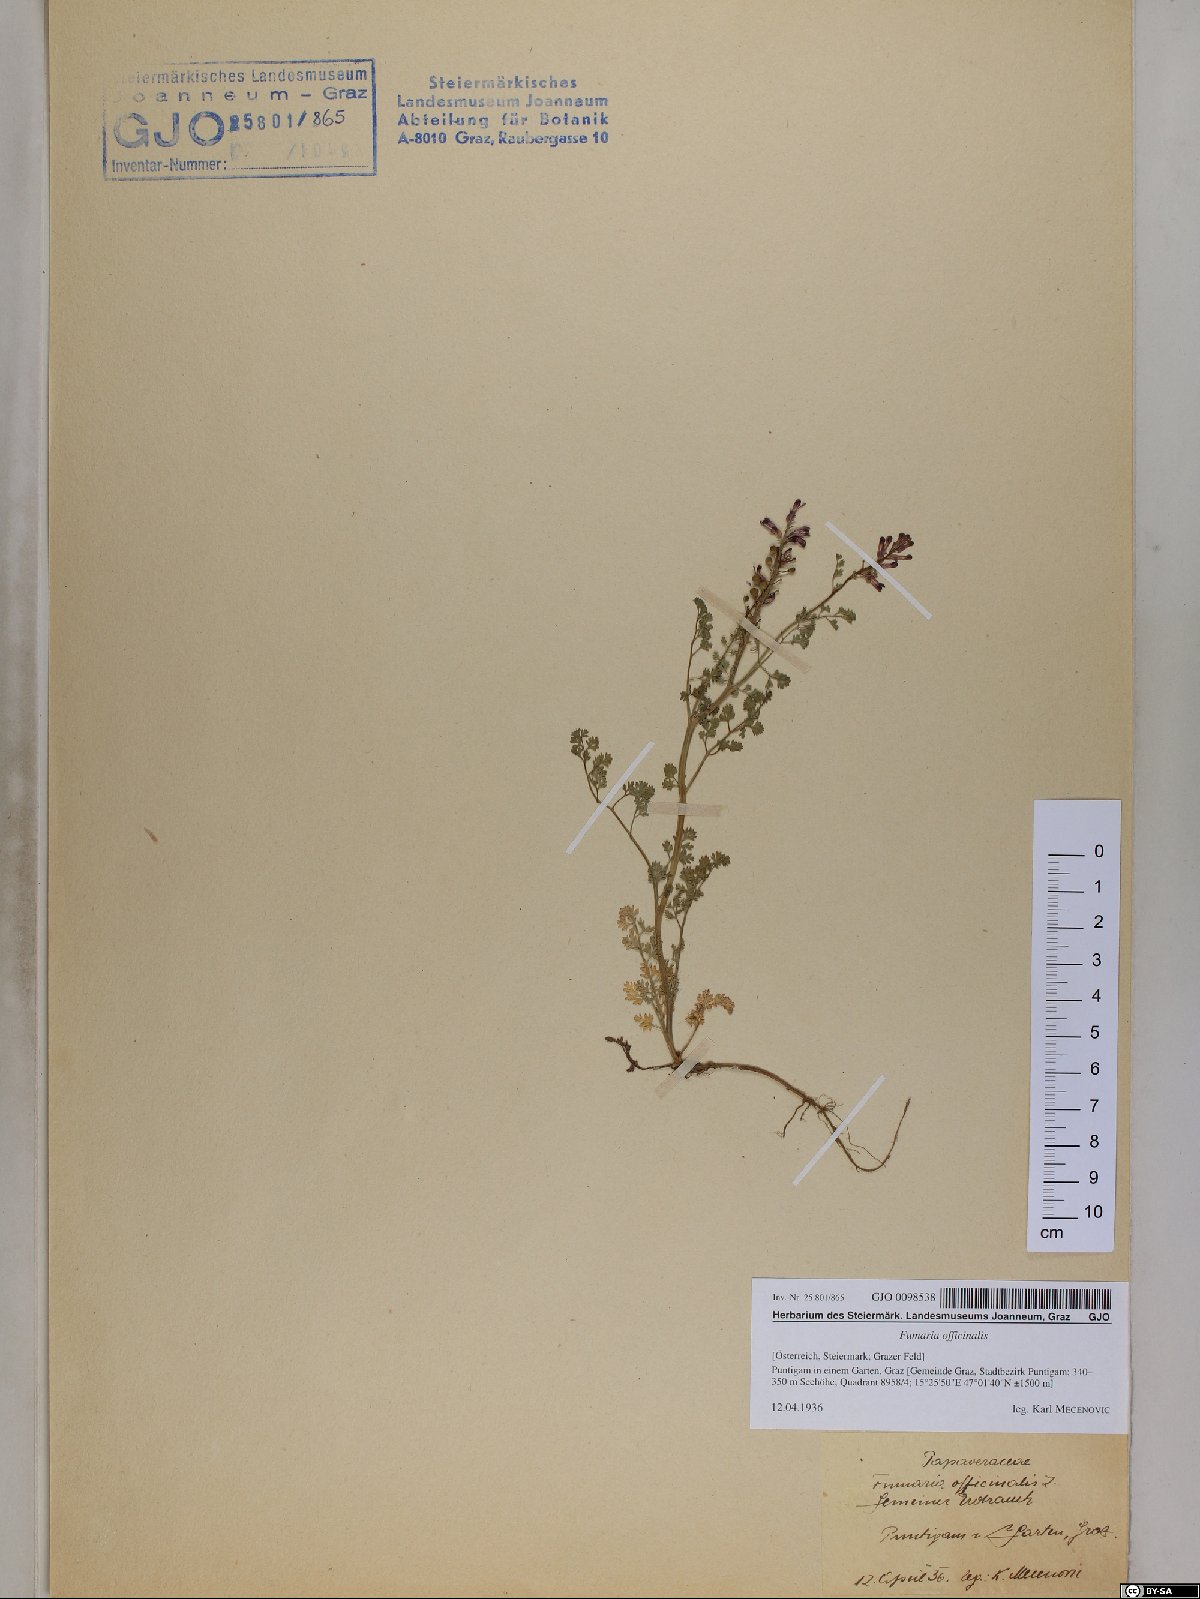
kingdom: Plantae
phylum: Tracheophyta
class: Magnoliopsida
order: Ranunculales
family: Papaveraceae
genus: Fumaria
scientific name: Fumaria officinalis
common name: Common fumitory
